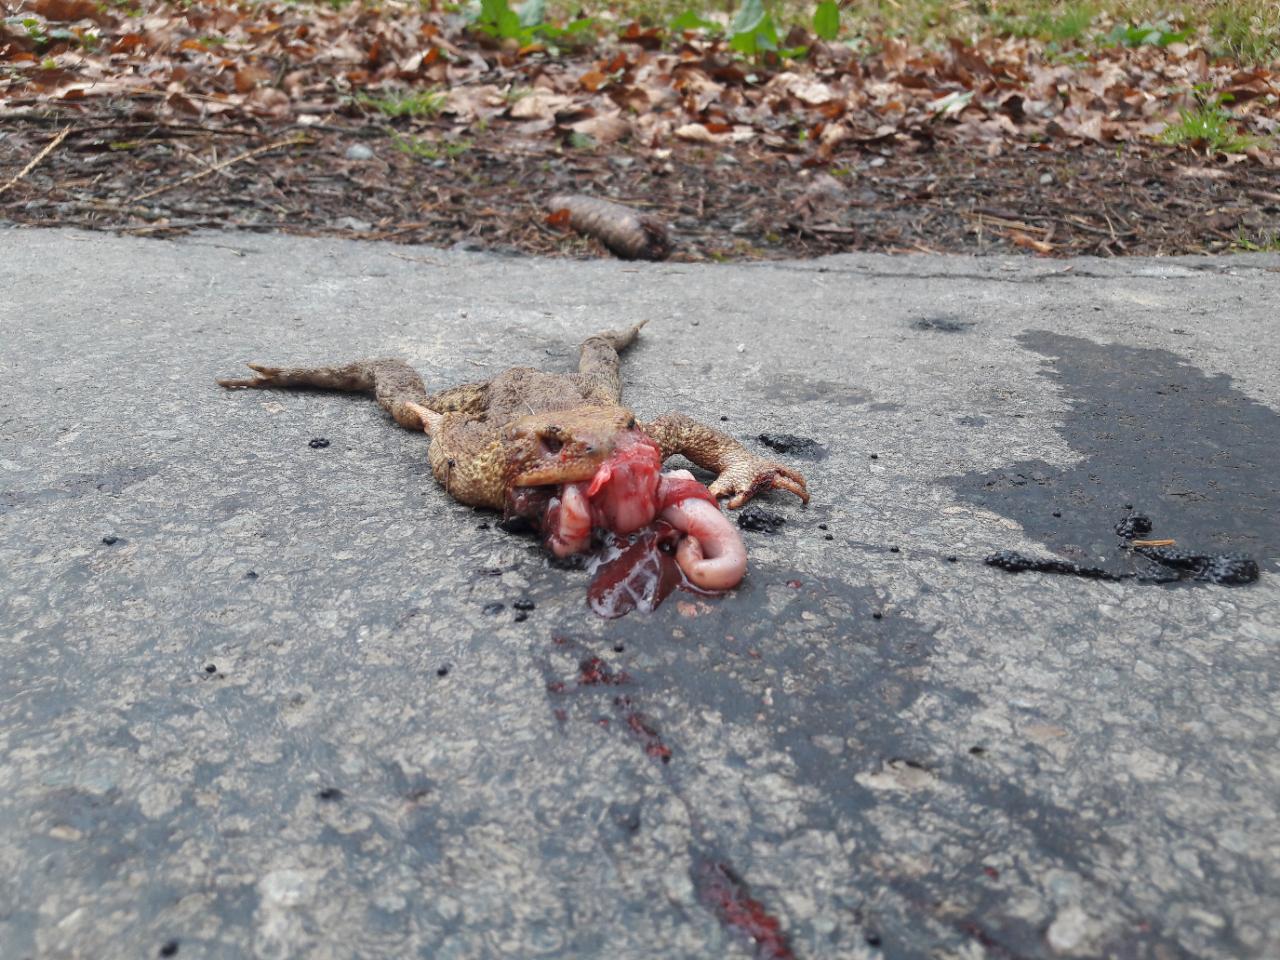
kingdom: Animalia
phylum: Chordata
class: Amphibia
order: Anura
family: Bufonidae
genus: Bufo
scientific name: Bufo bufo
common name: Common toad
